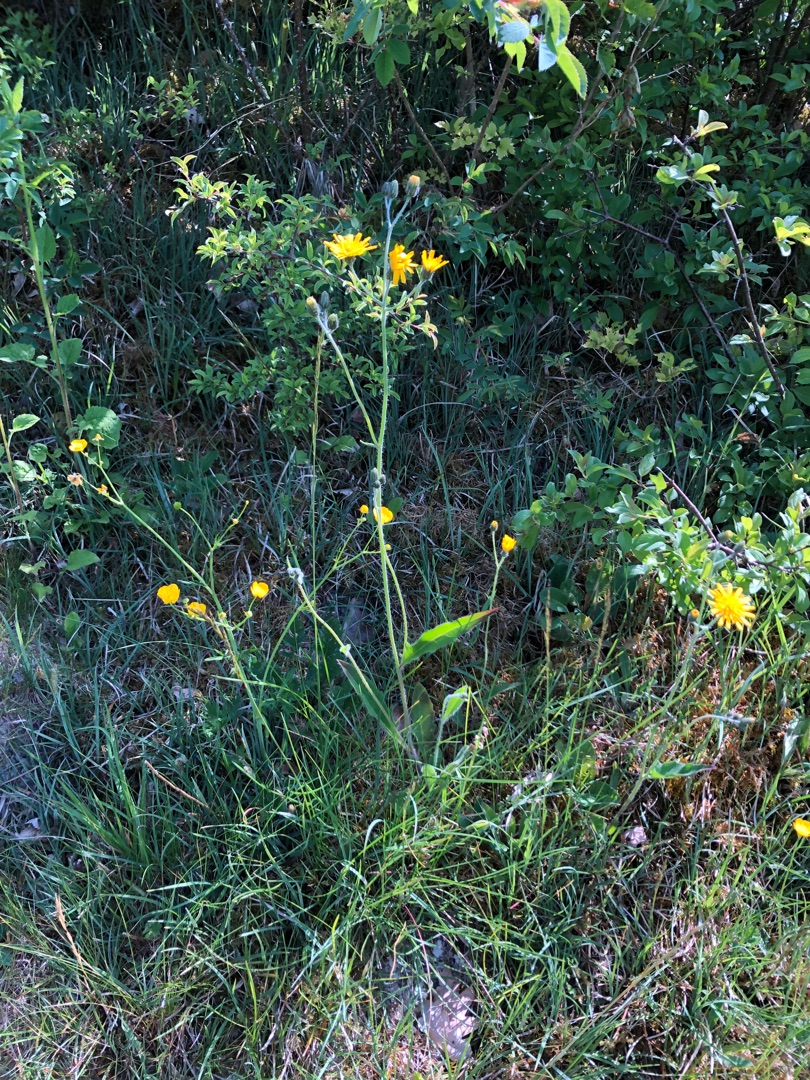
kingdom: Plantae
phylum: Tracheophyta
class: Magnoliopsida
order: Asterales
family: Asteraceae
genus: Crepis
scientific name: Crepis praemorsa
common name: Afbidt høgeskæg
